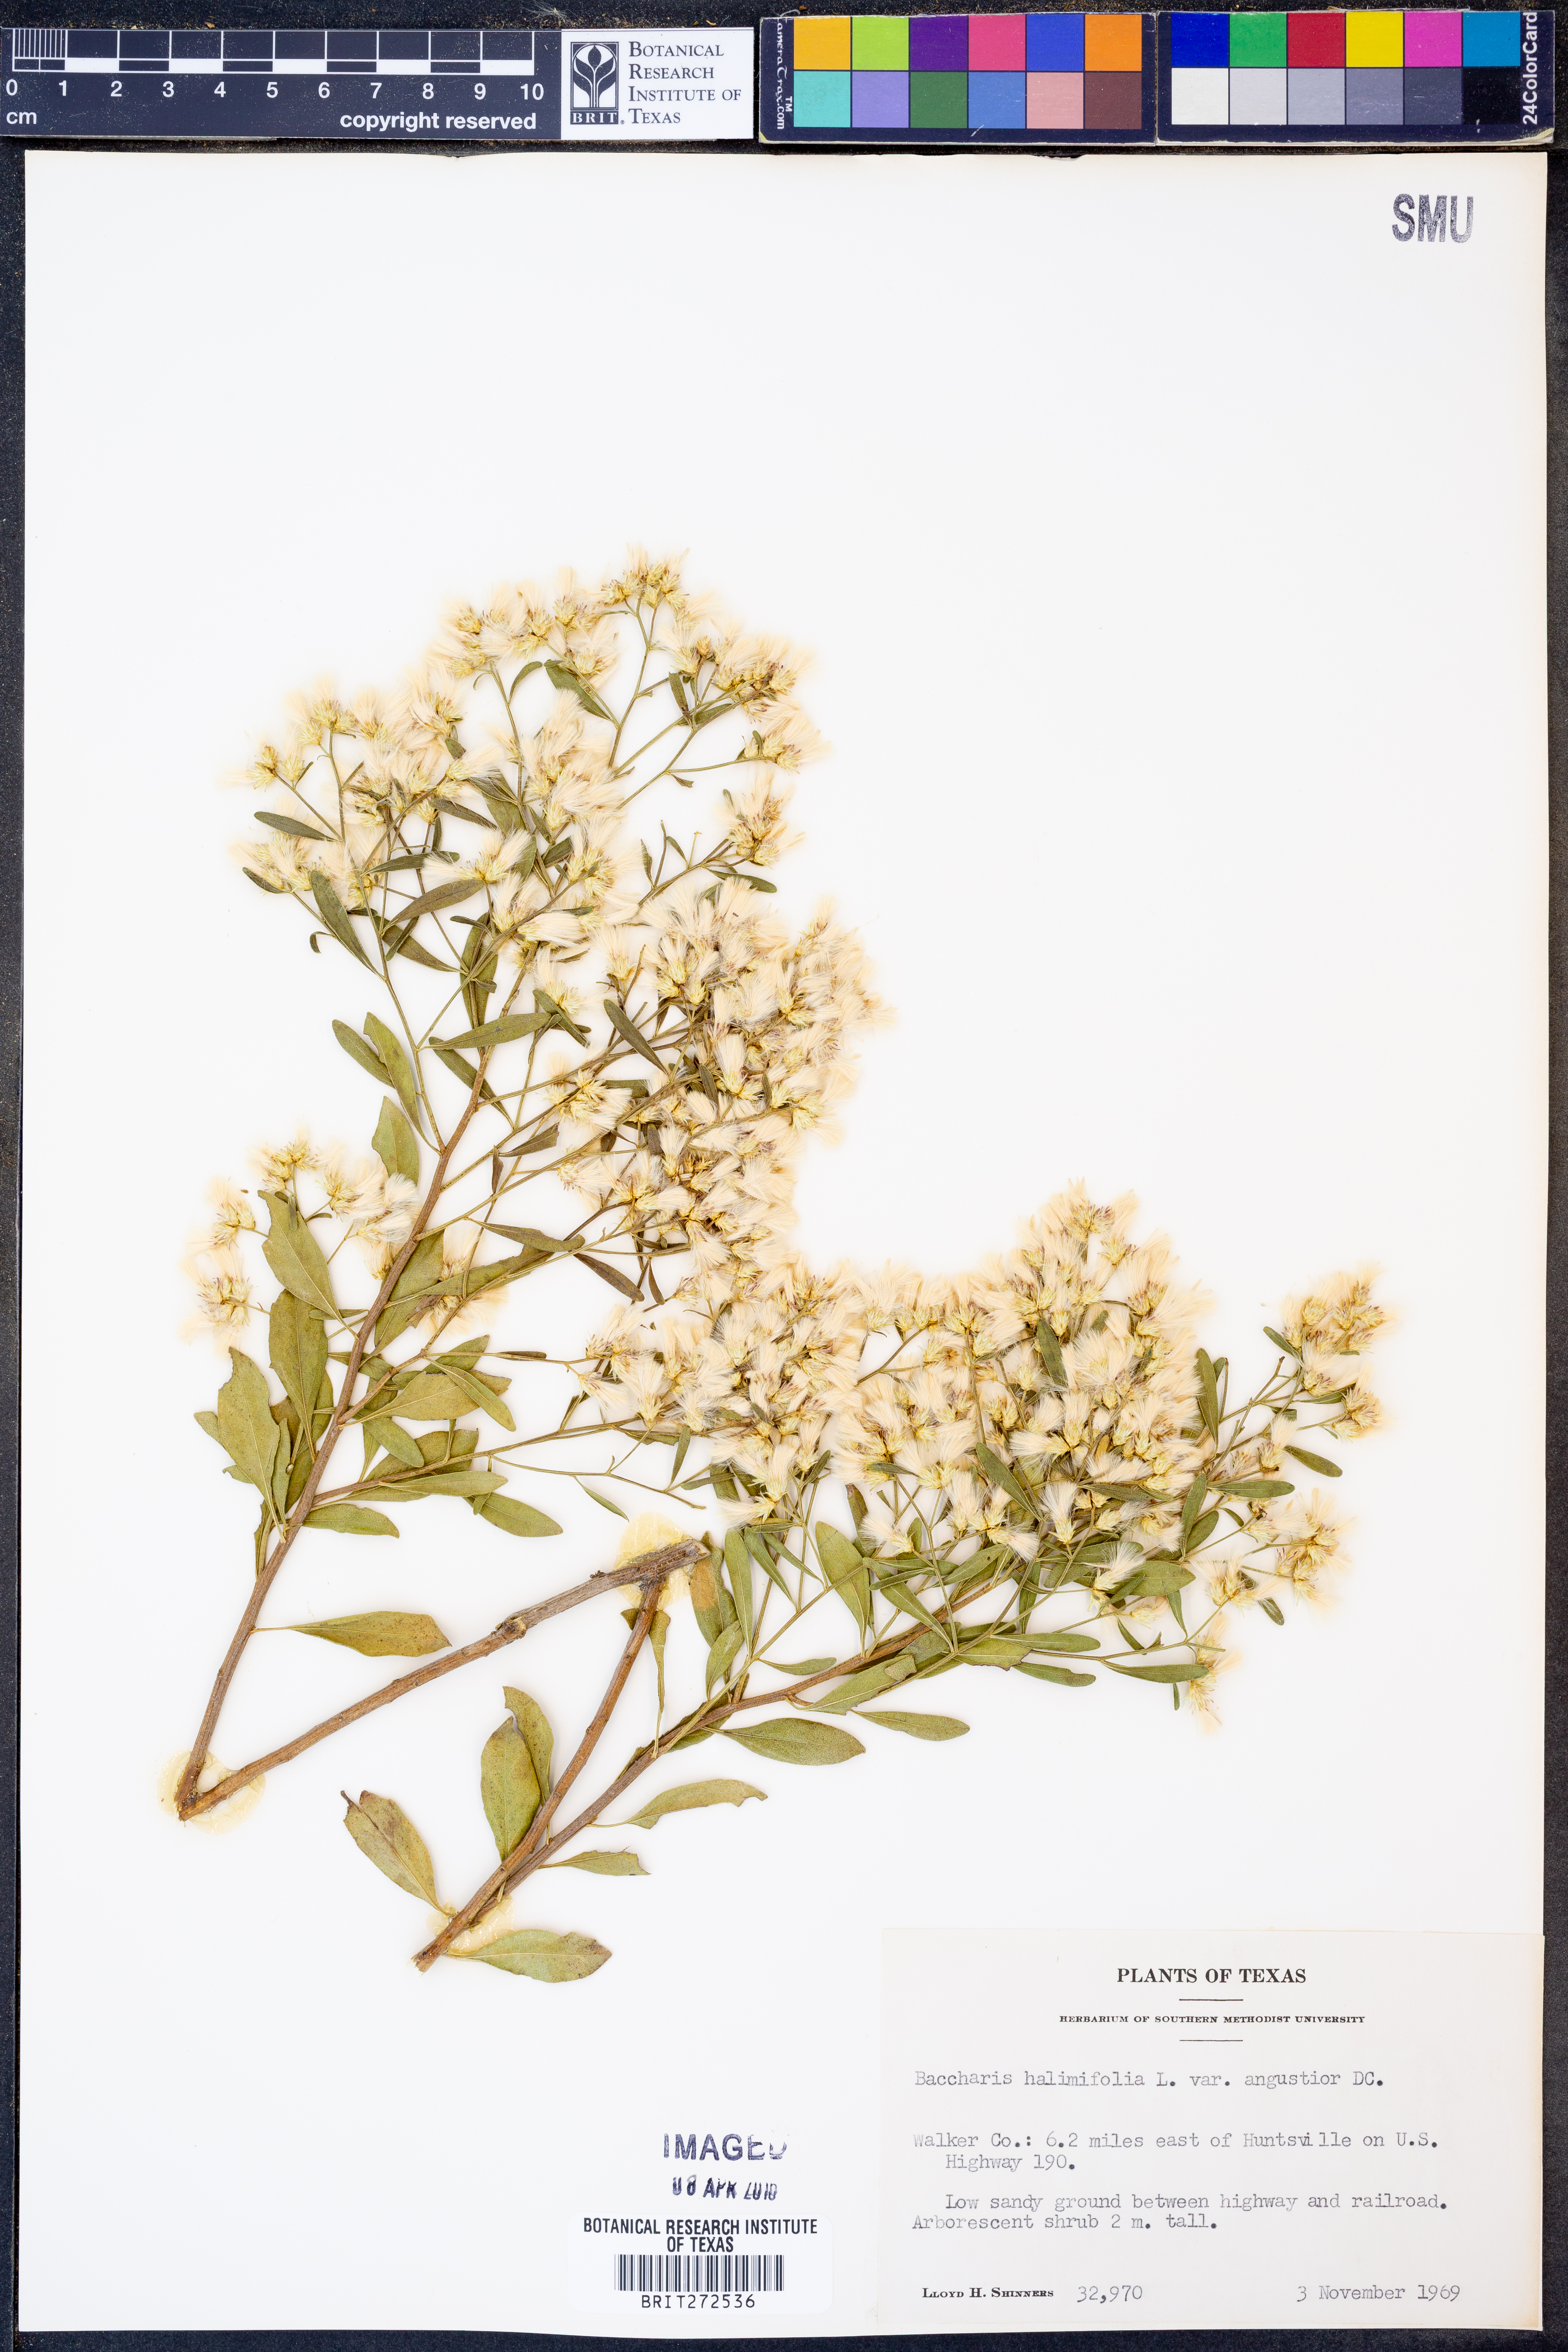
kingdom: Plantae
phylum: Tracheophyta
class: Magnoliopsida
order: Asterales
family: Asteraceae
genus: Baccharis
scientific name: Baccharis halimifolia
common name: Eastern baccharis
